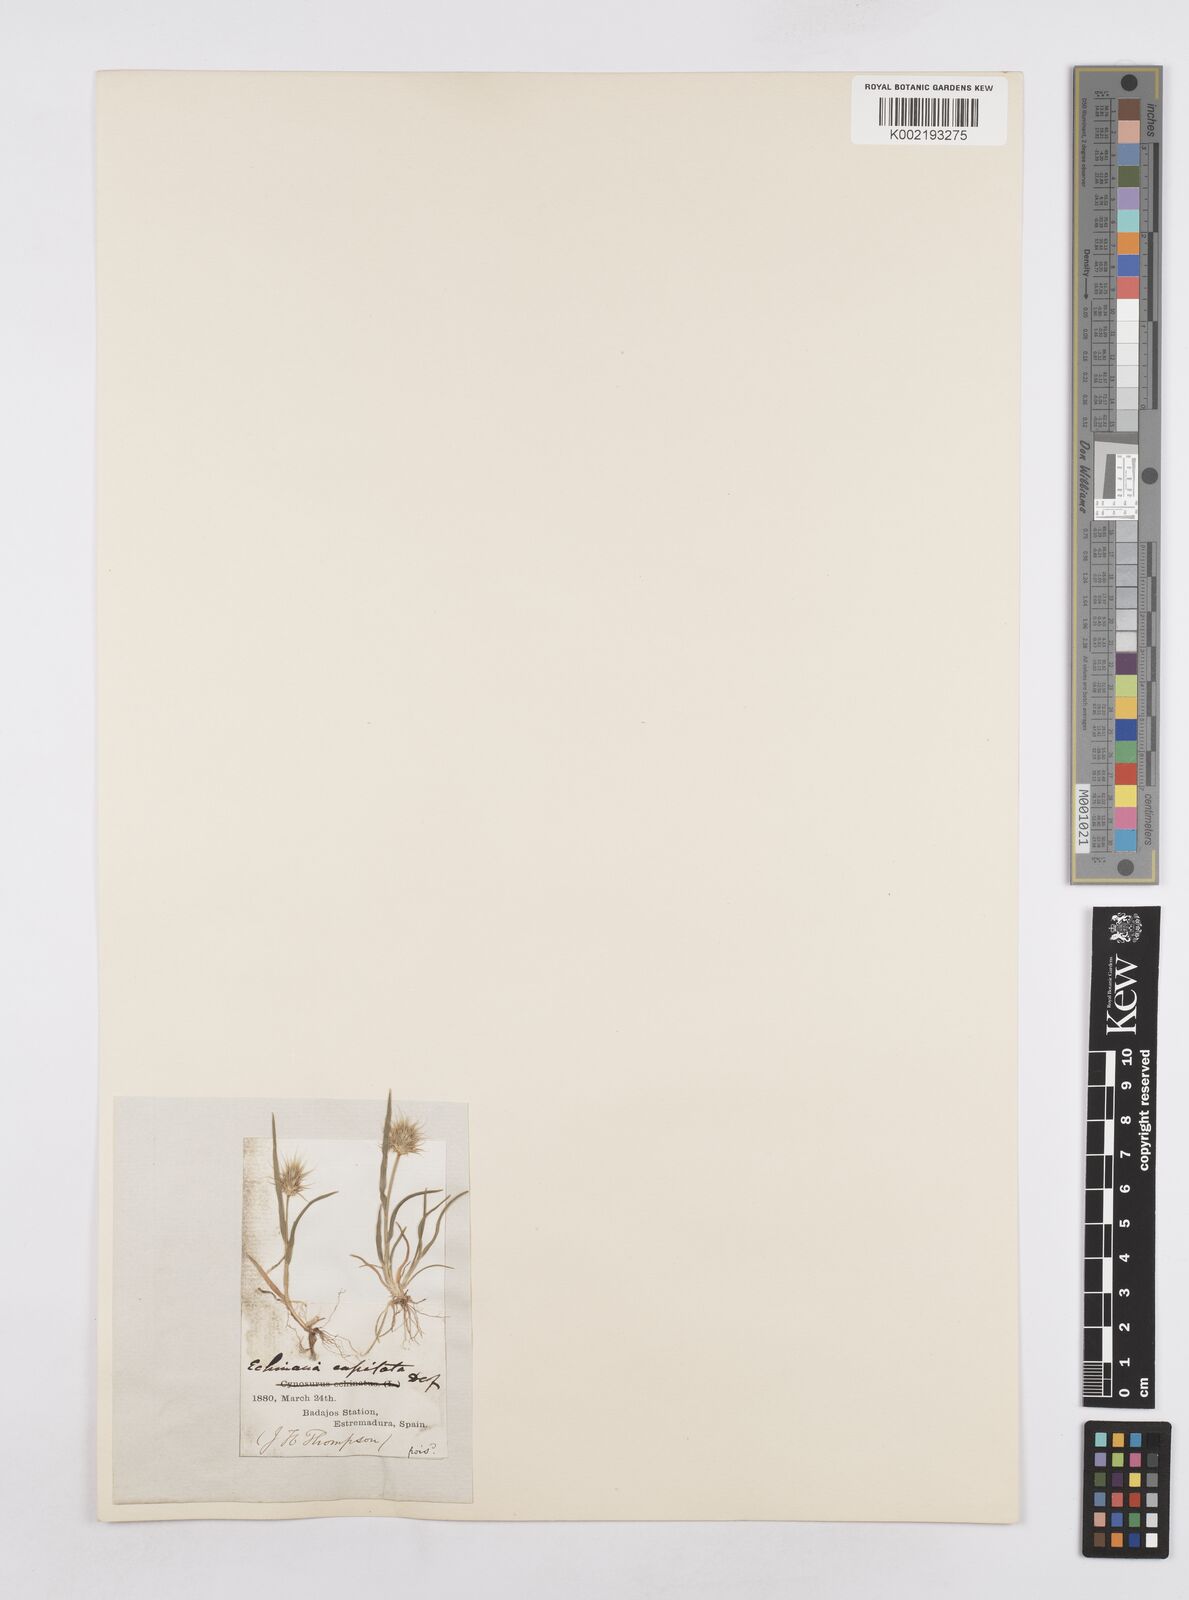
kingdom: Plantae
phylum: Tracheophyta
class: Liliopsida
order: Poales
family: Poaceae
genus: Echinaria
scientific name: Echinaria capitata
